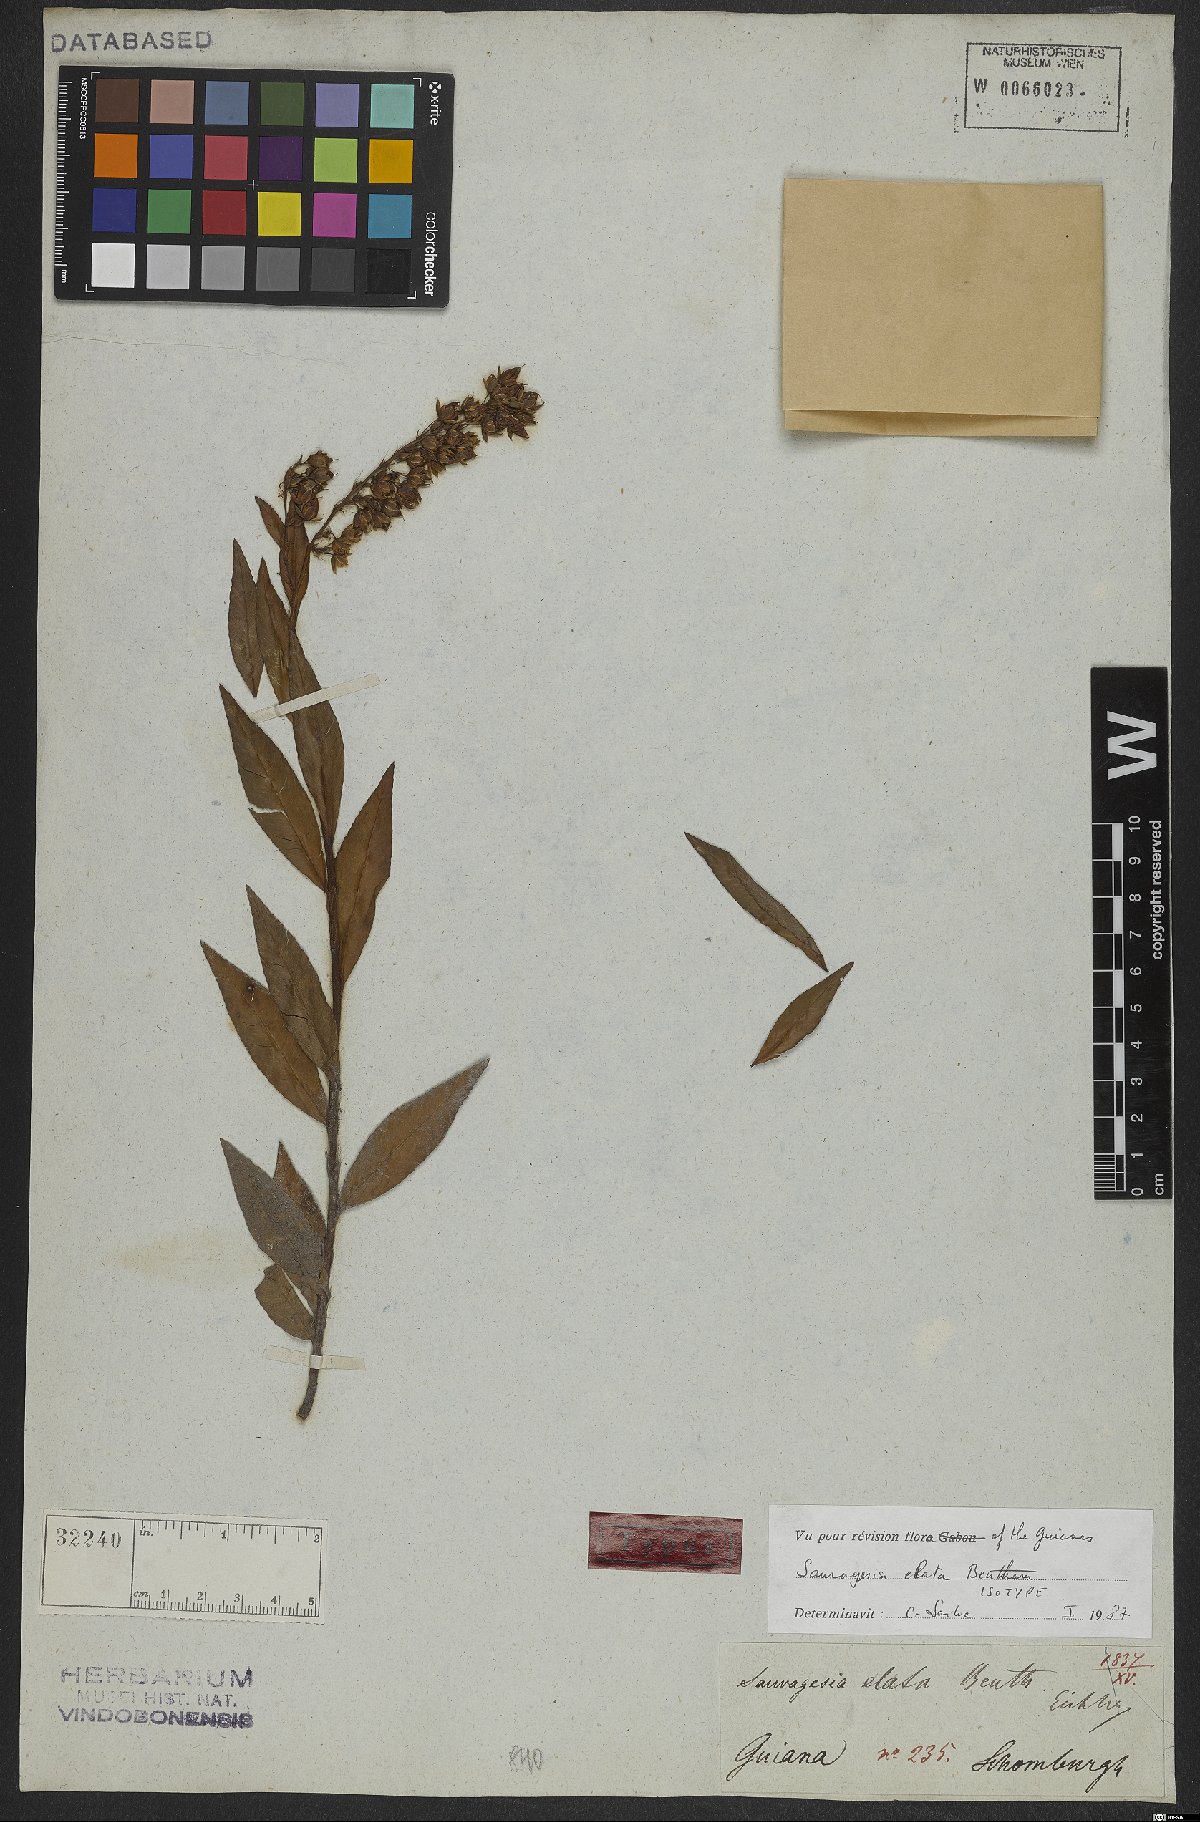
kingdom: Plantae
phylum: Tracheophyta
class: Magnoliopsida
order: Malpighiales
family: Ochnaceae
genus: Sauvagesia
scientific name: Sauvagesia elata
